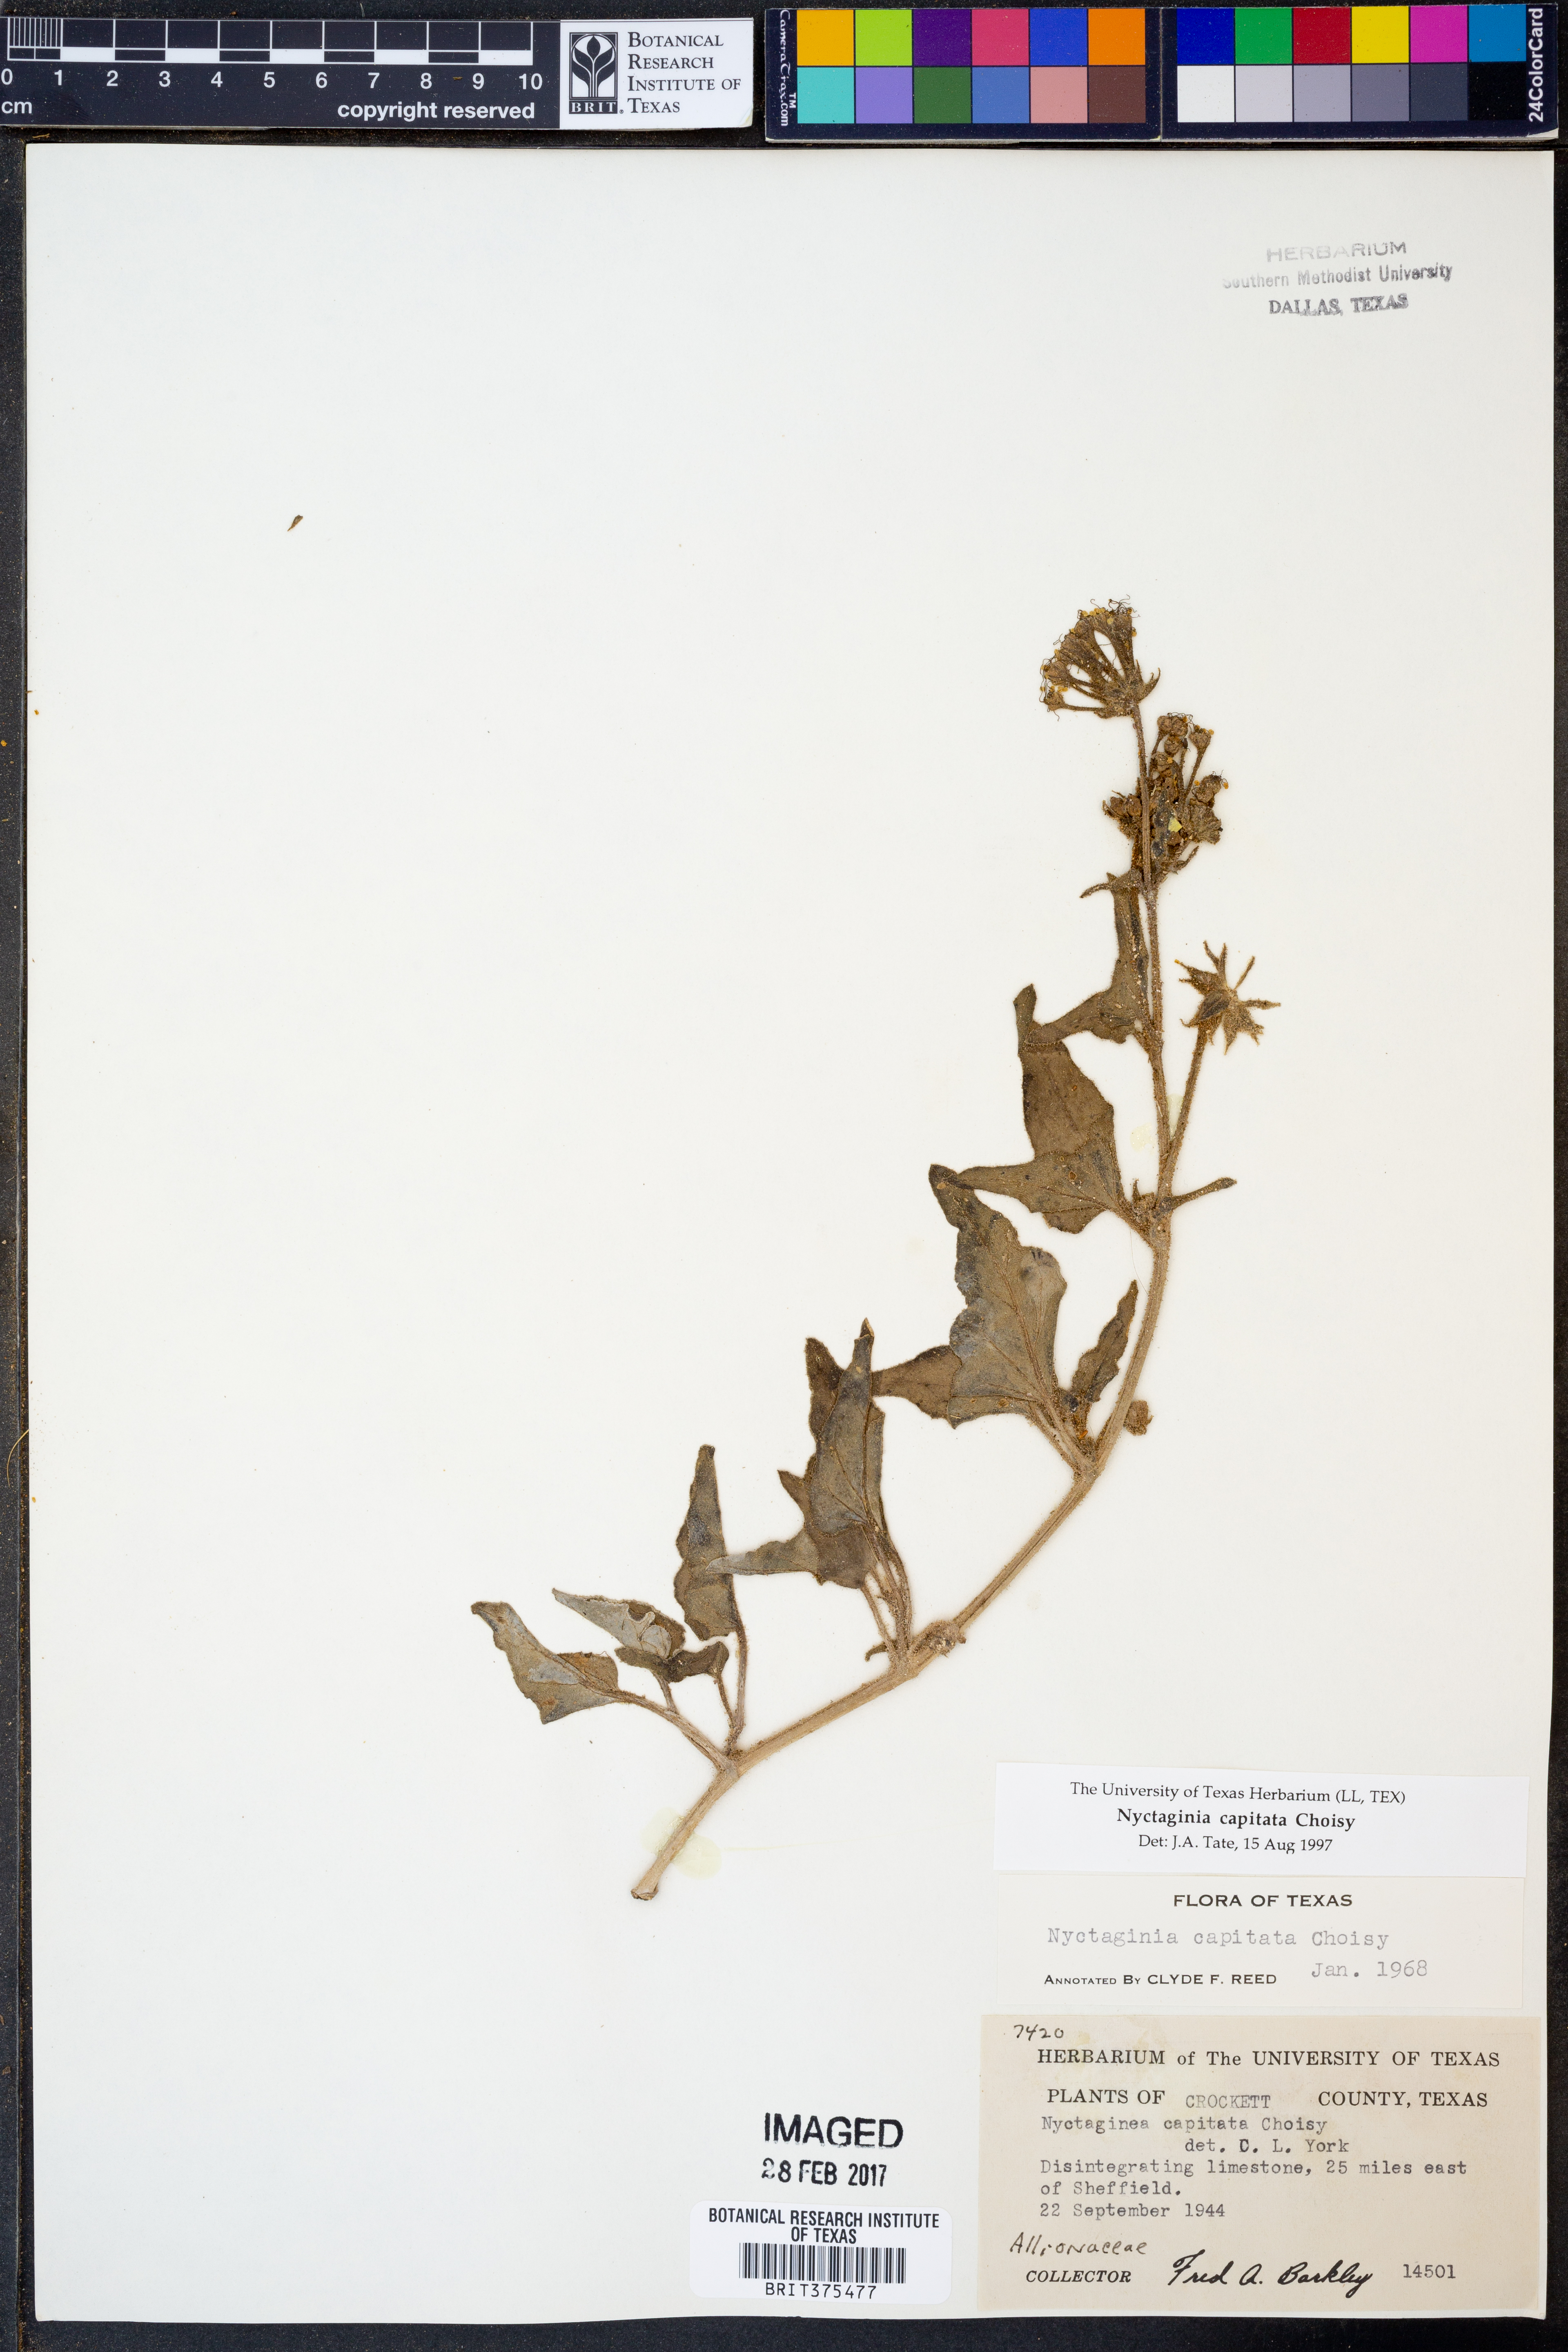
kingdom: Plantae
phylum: Tracheophyta
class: Magnoliopsida
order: Caryophyllales
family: Nyctaginaceae
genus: Nyctaginia
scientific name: Nyctaginia capitata
